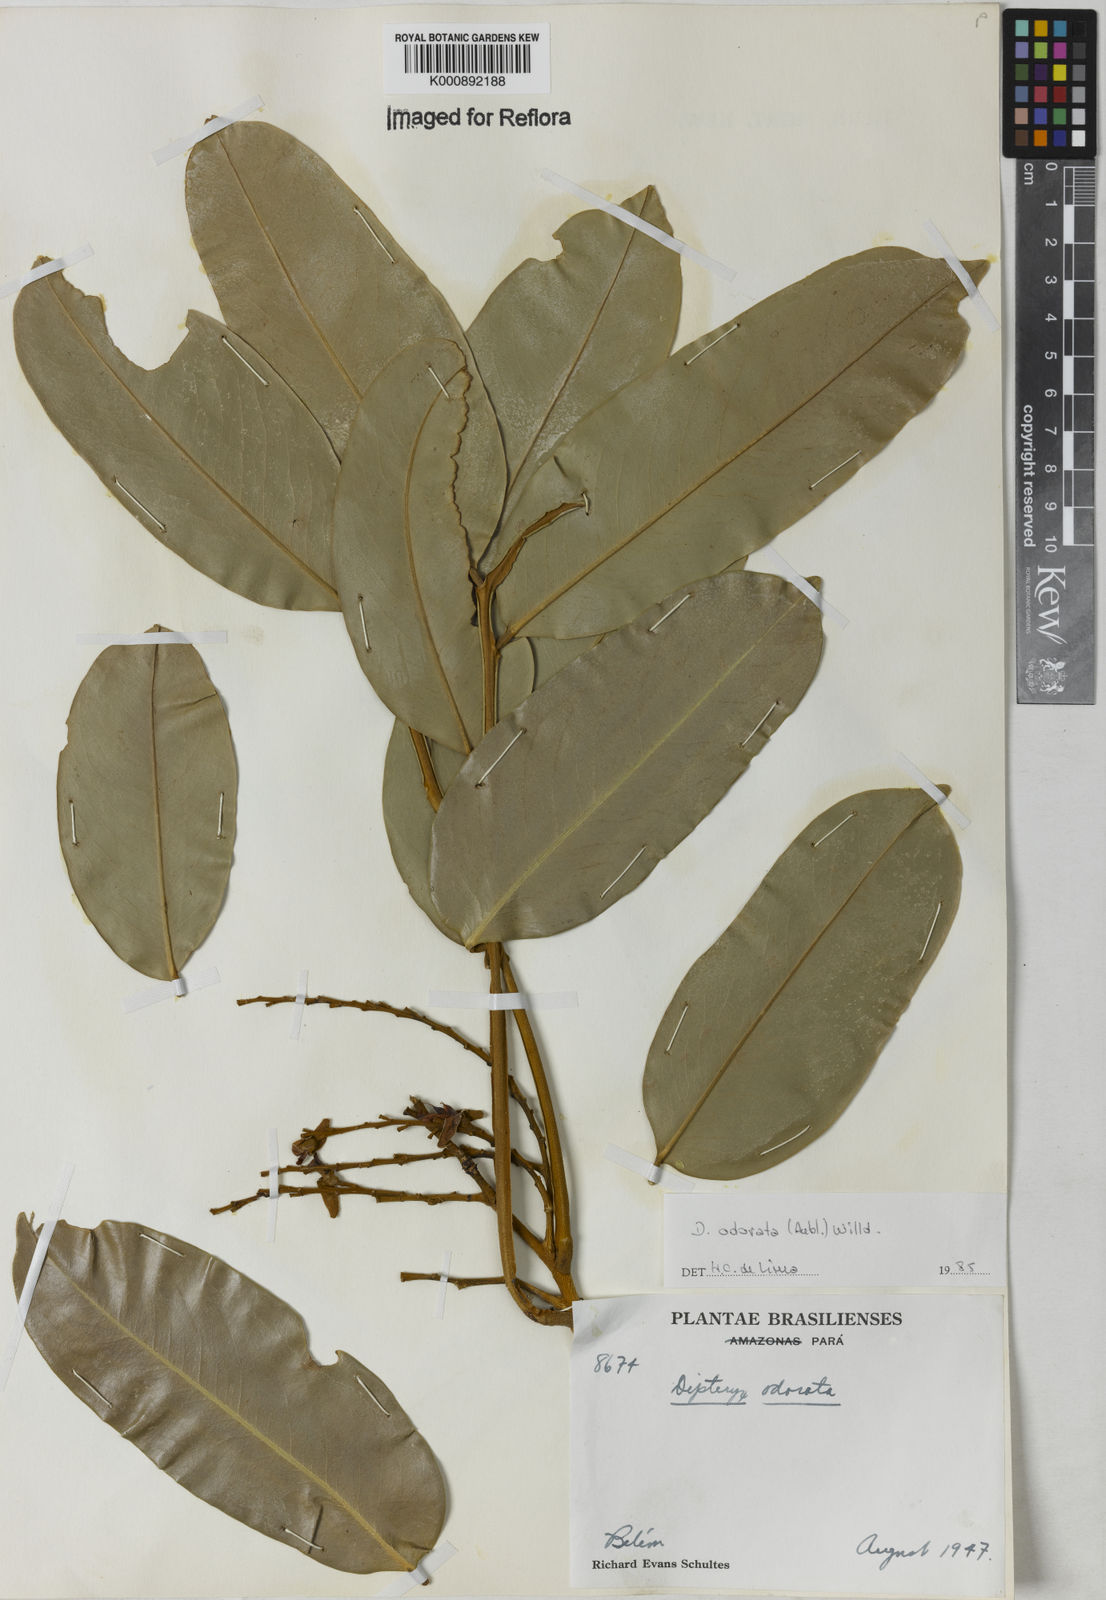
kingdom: Plantae
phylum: Tracheophyta
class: Magnoliopsida
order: Fabales
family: Fabaceae
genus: Dipteryx
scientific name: Dipteryx
